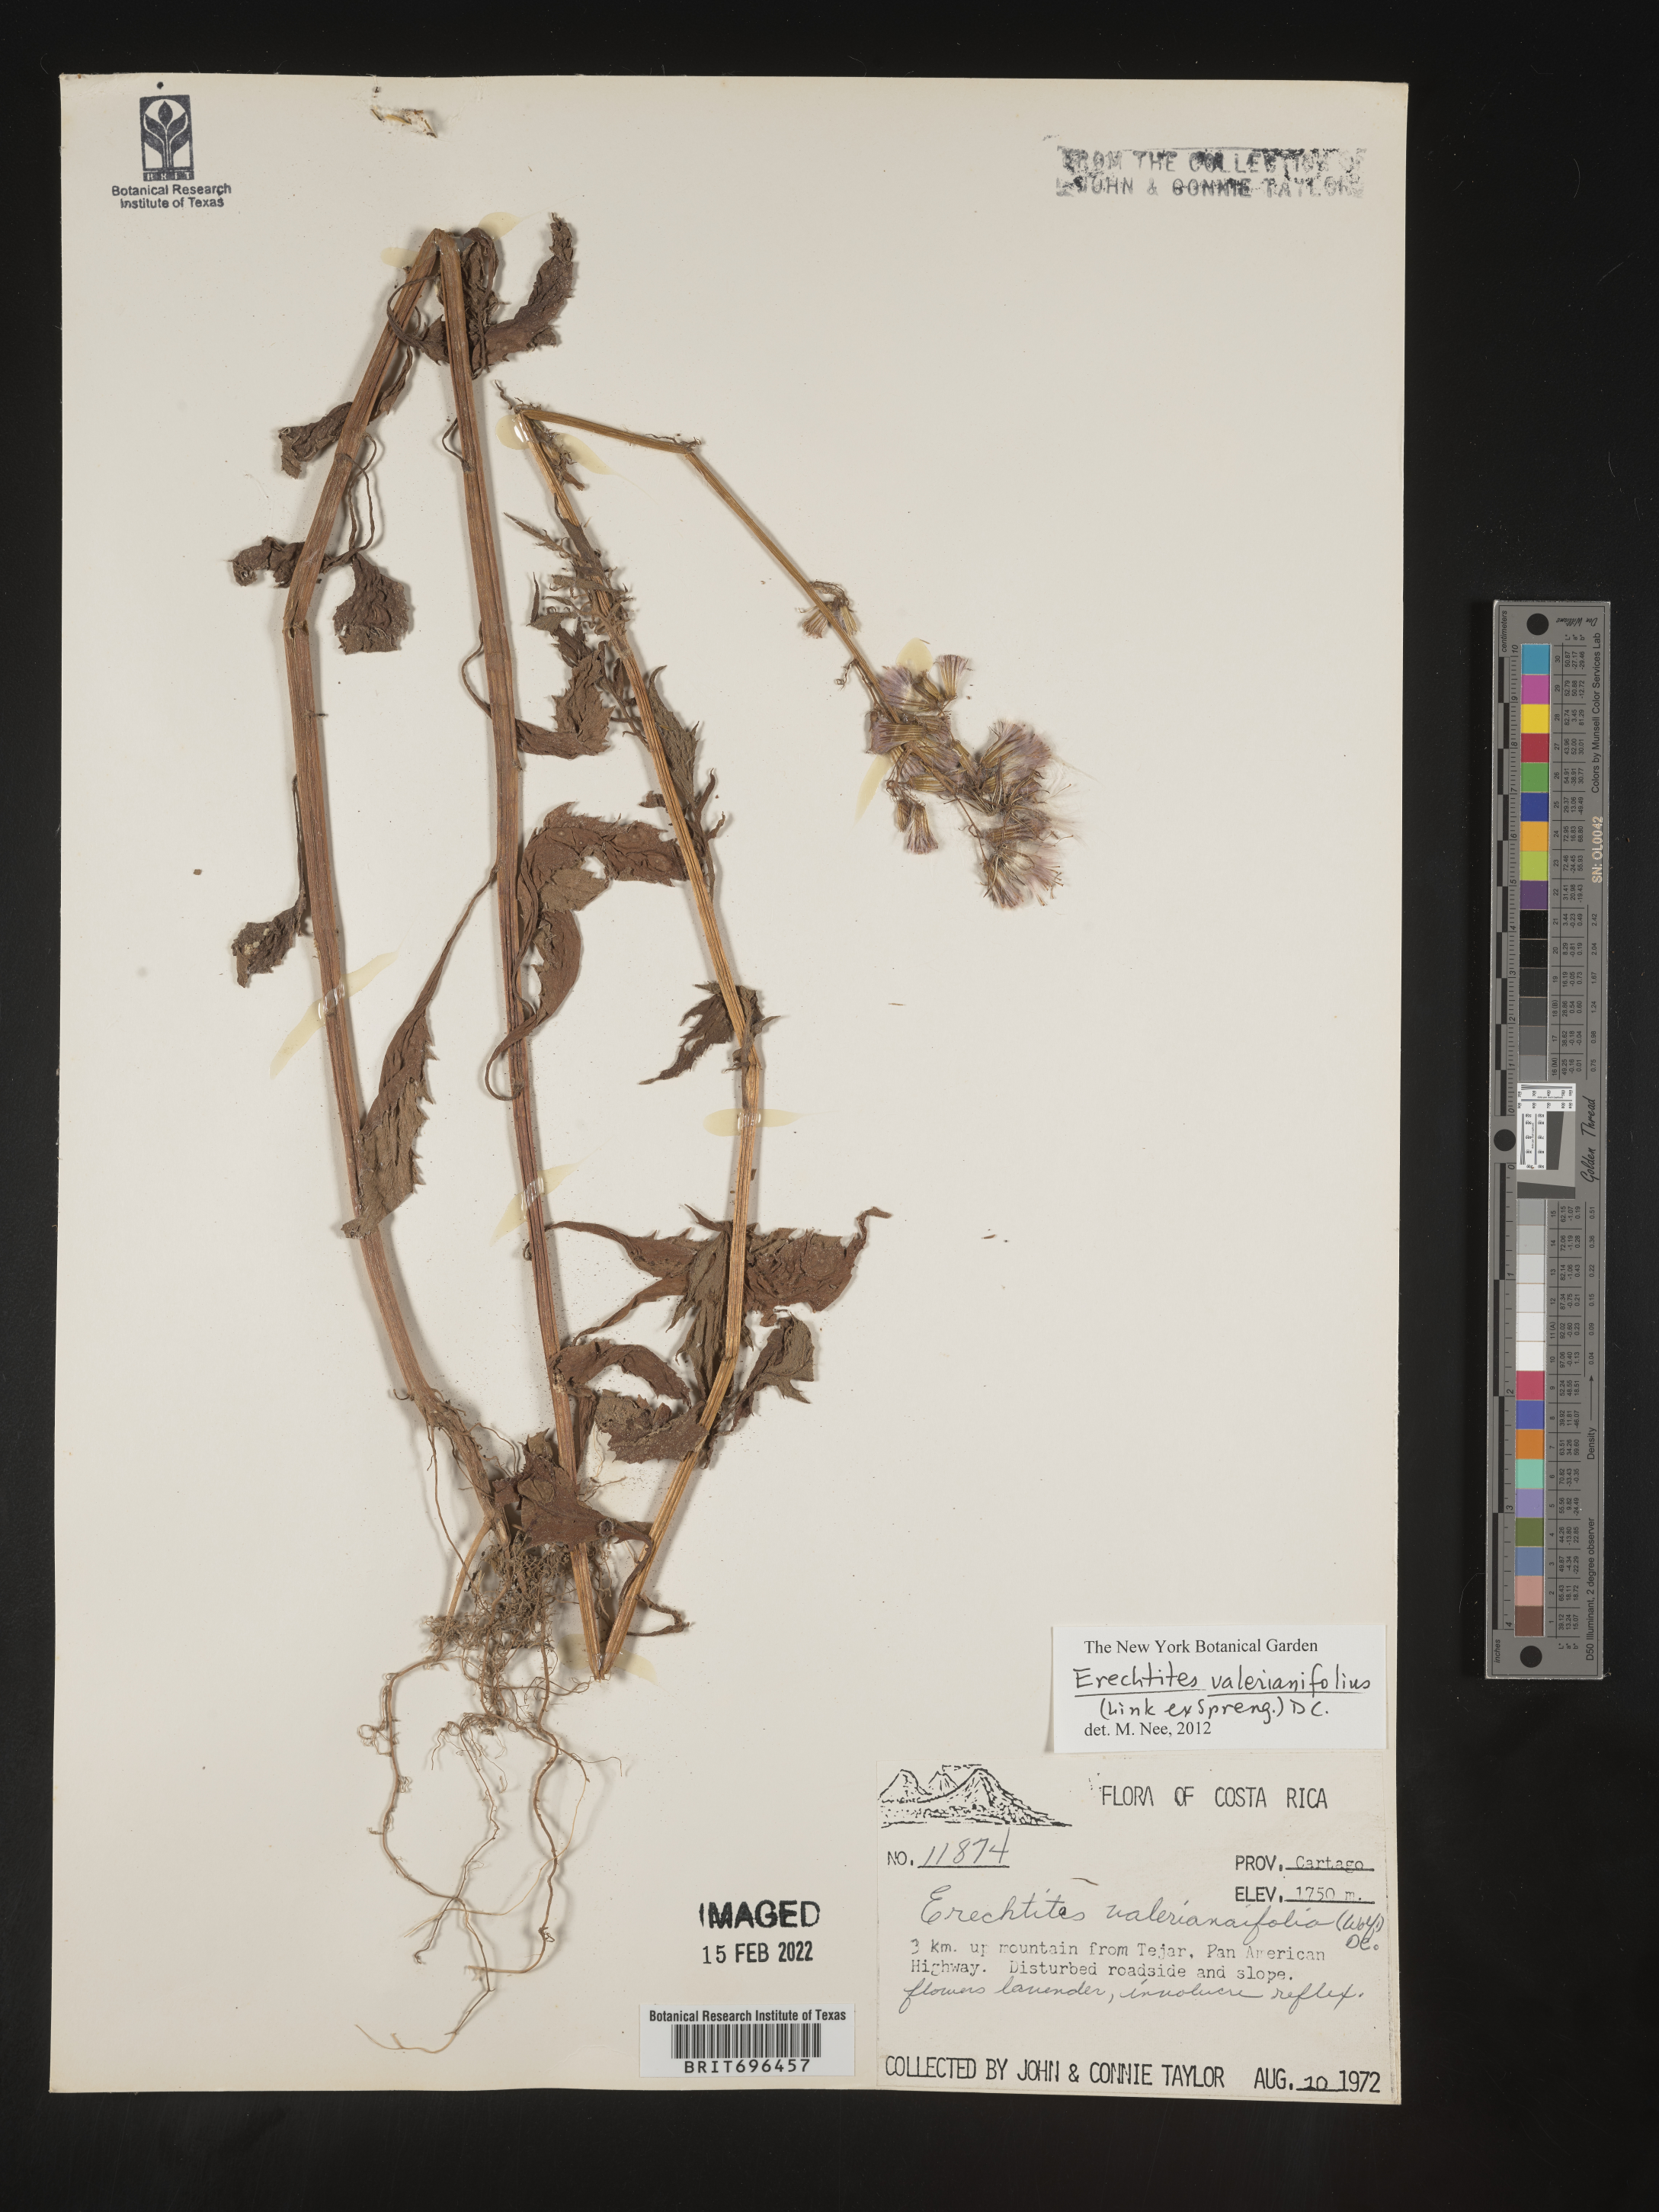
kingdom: Plantae
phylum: Tracheophyta
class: Magnoliopsida
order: Asterales
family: Asteraceae
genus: Erechtites
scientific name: Erechtites
